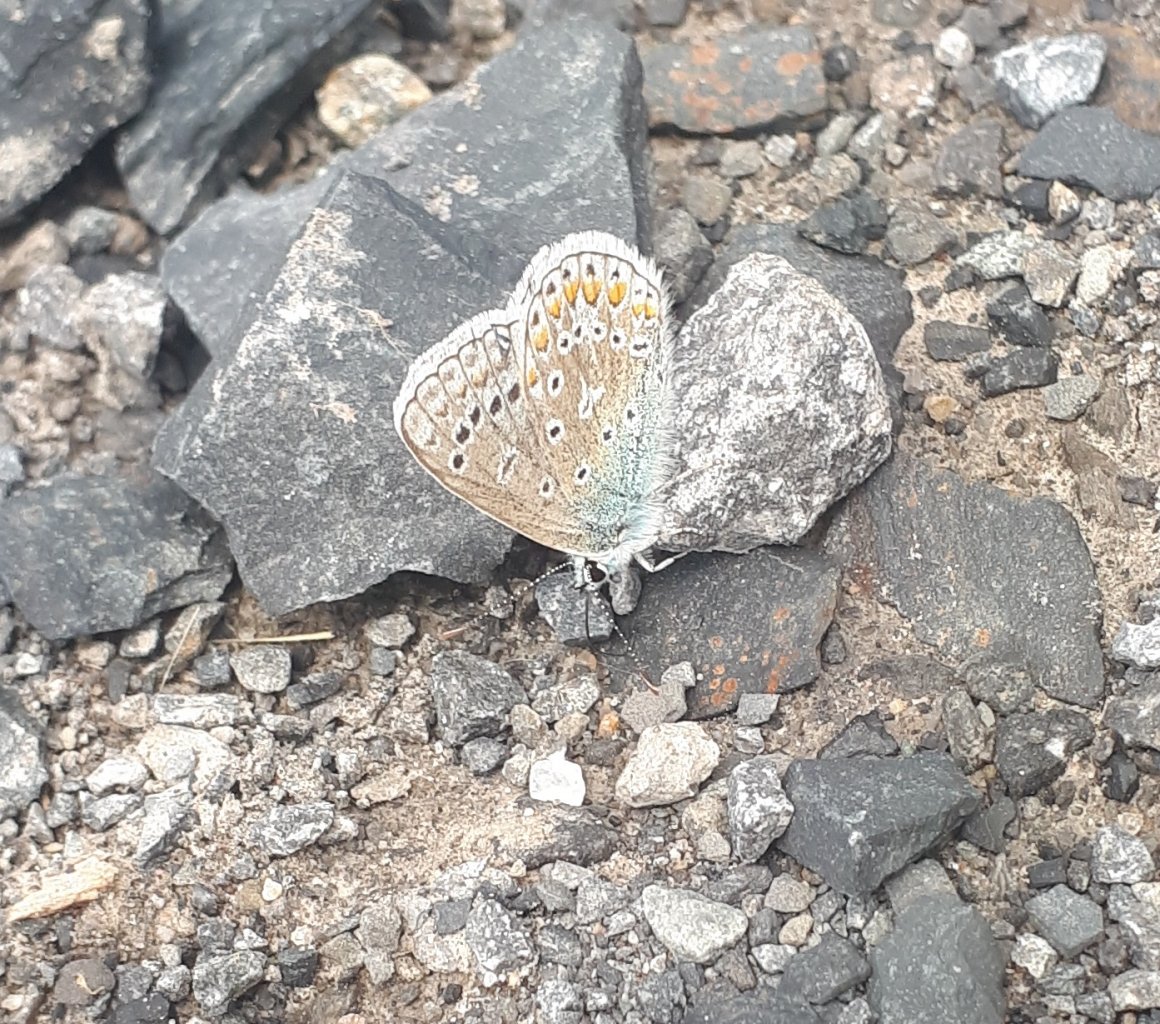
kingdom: Animalia
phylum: Arthropoda
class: Insecta
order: Lepidoptera
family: Lycaenidae
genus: Polyommatus
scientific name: Polyommatus icarus
